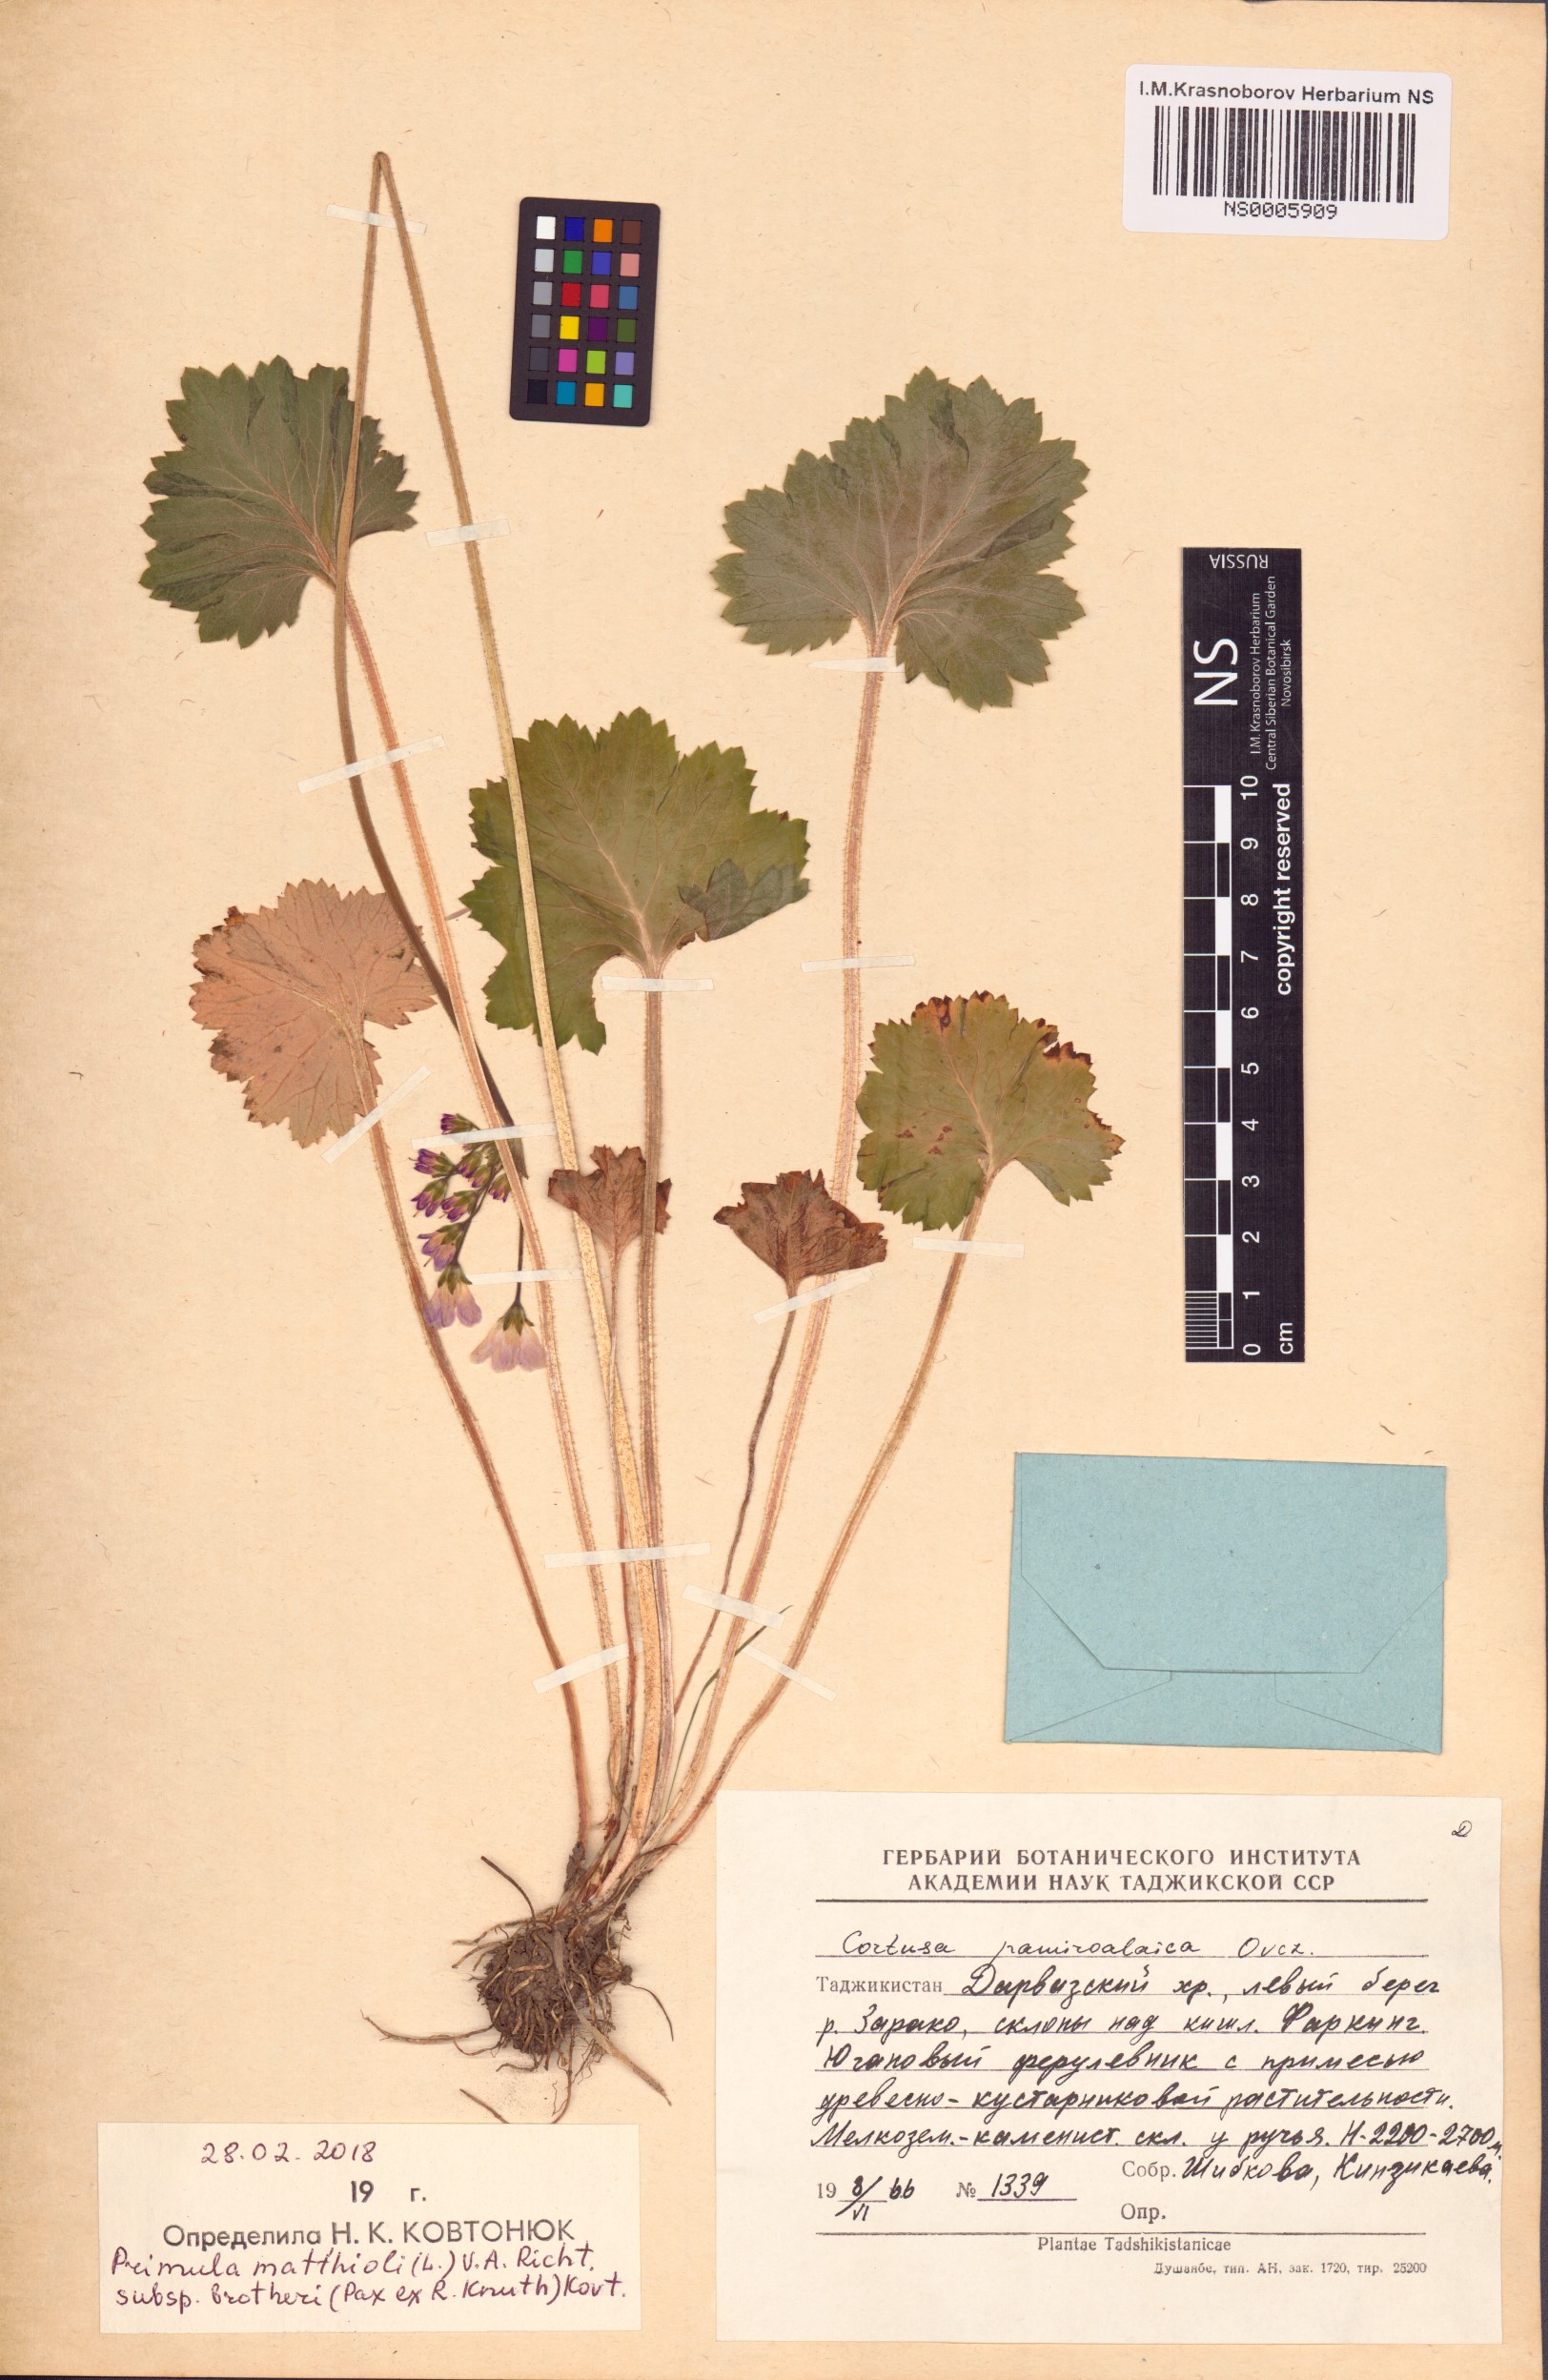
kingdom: Plantae
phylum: Tracheophyta
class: Magnoliopsida
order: Ericales
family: Primulaceae
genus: Primula
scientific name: Primula matthioli
